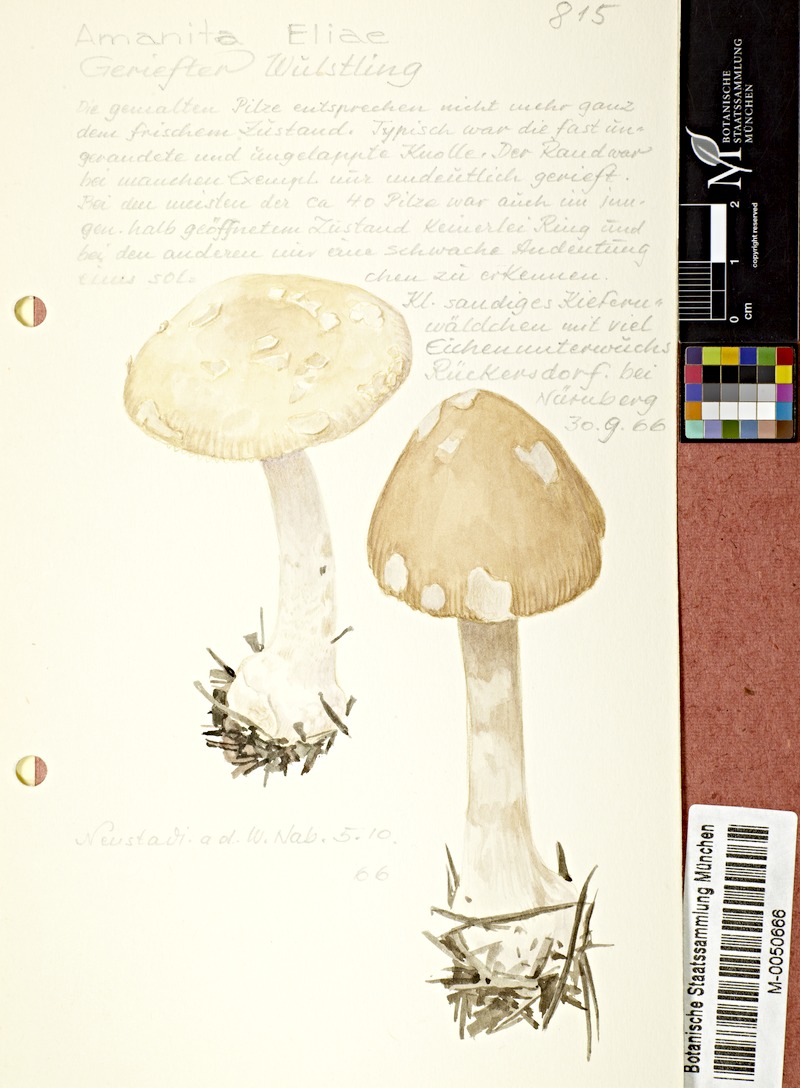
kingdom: Fungi
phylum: Basidiomycota
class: Agaricomycetes
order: Agaricales
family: Amanitaceae
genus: Amanita
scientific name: Amanita eliae
